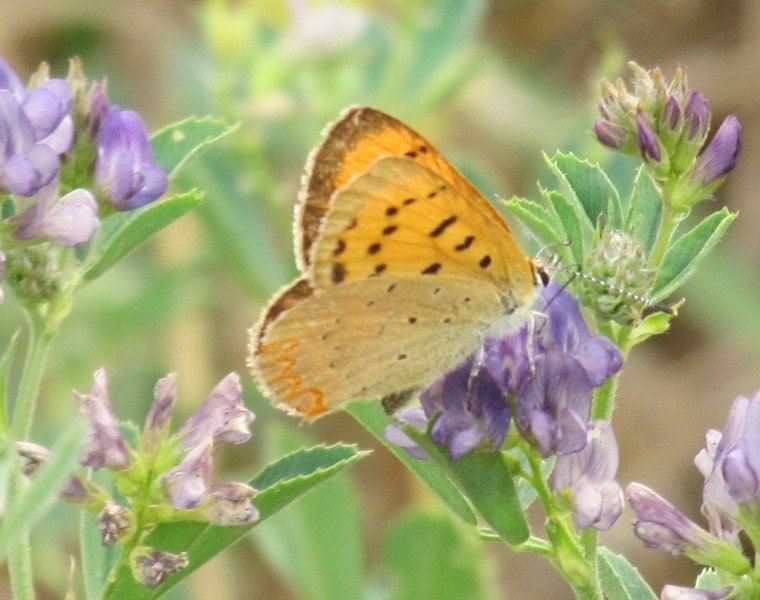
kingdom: Animalia
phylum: Arthropoda
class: Insecta
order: Lepidoptera
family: Sesiidae
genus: Sesia
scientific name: Sesia Lycaena helloides
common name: Purplish Copper
